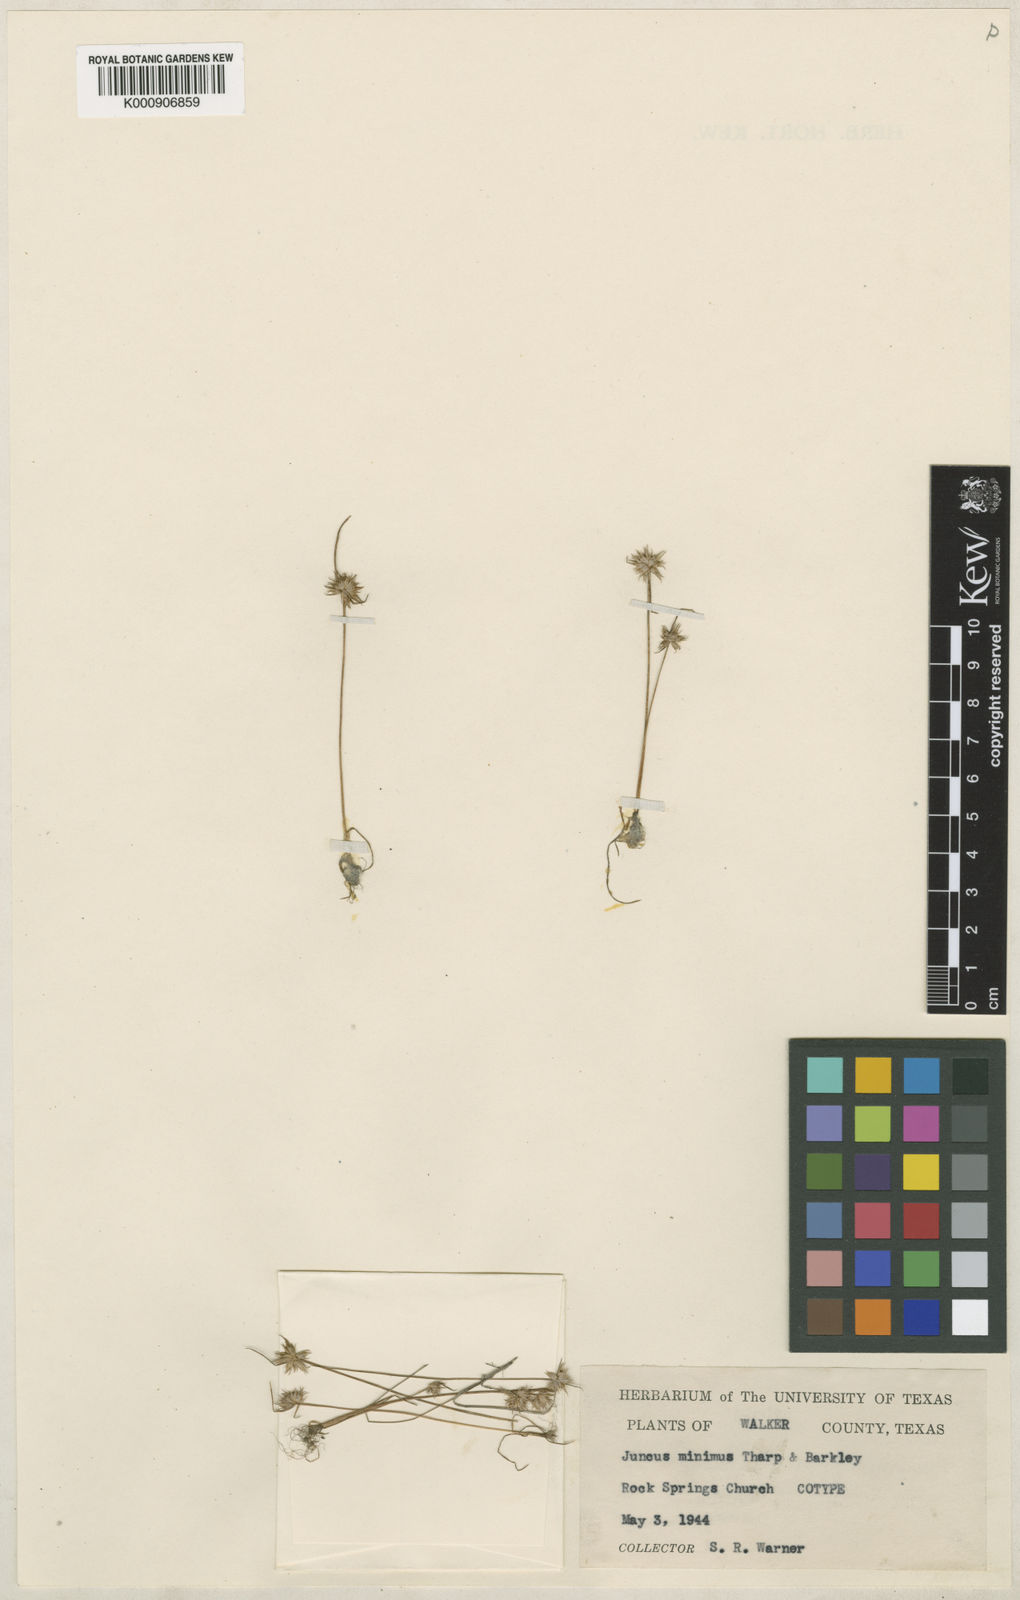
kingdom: Plantae
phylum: Tracheophyta
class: Liliopsida
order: Poales
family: Juncaceae
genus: Juncus
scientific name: Juncus capitatus
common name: Dwarf rush
